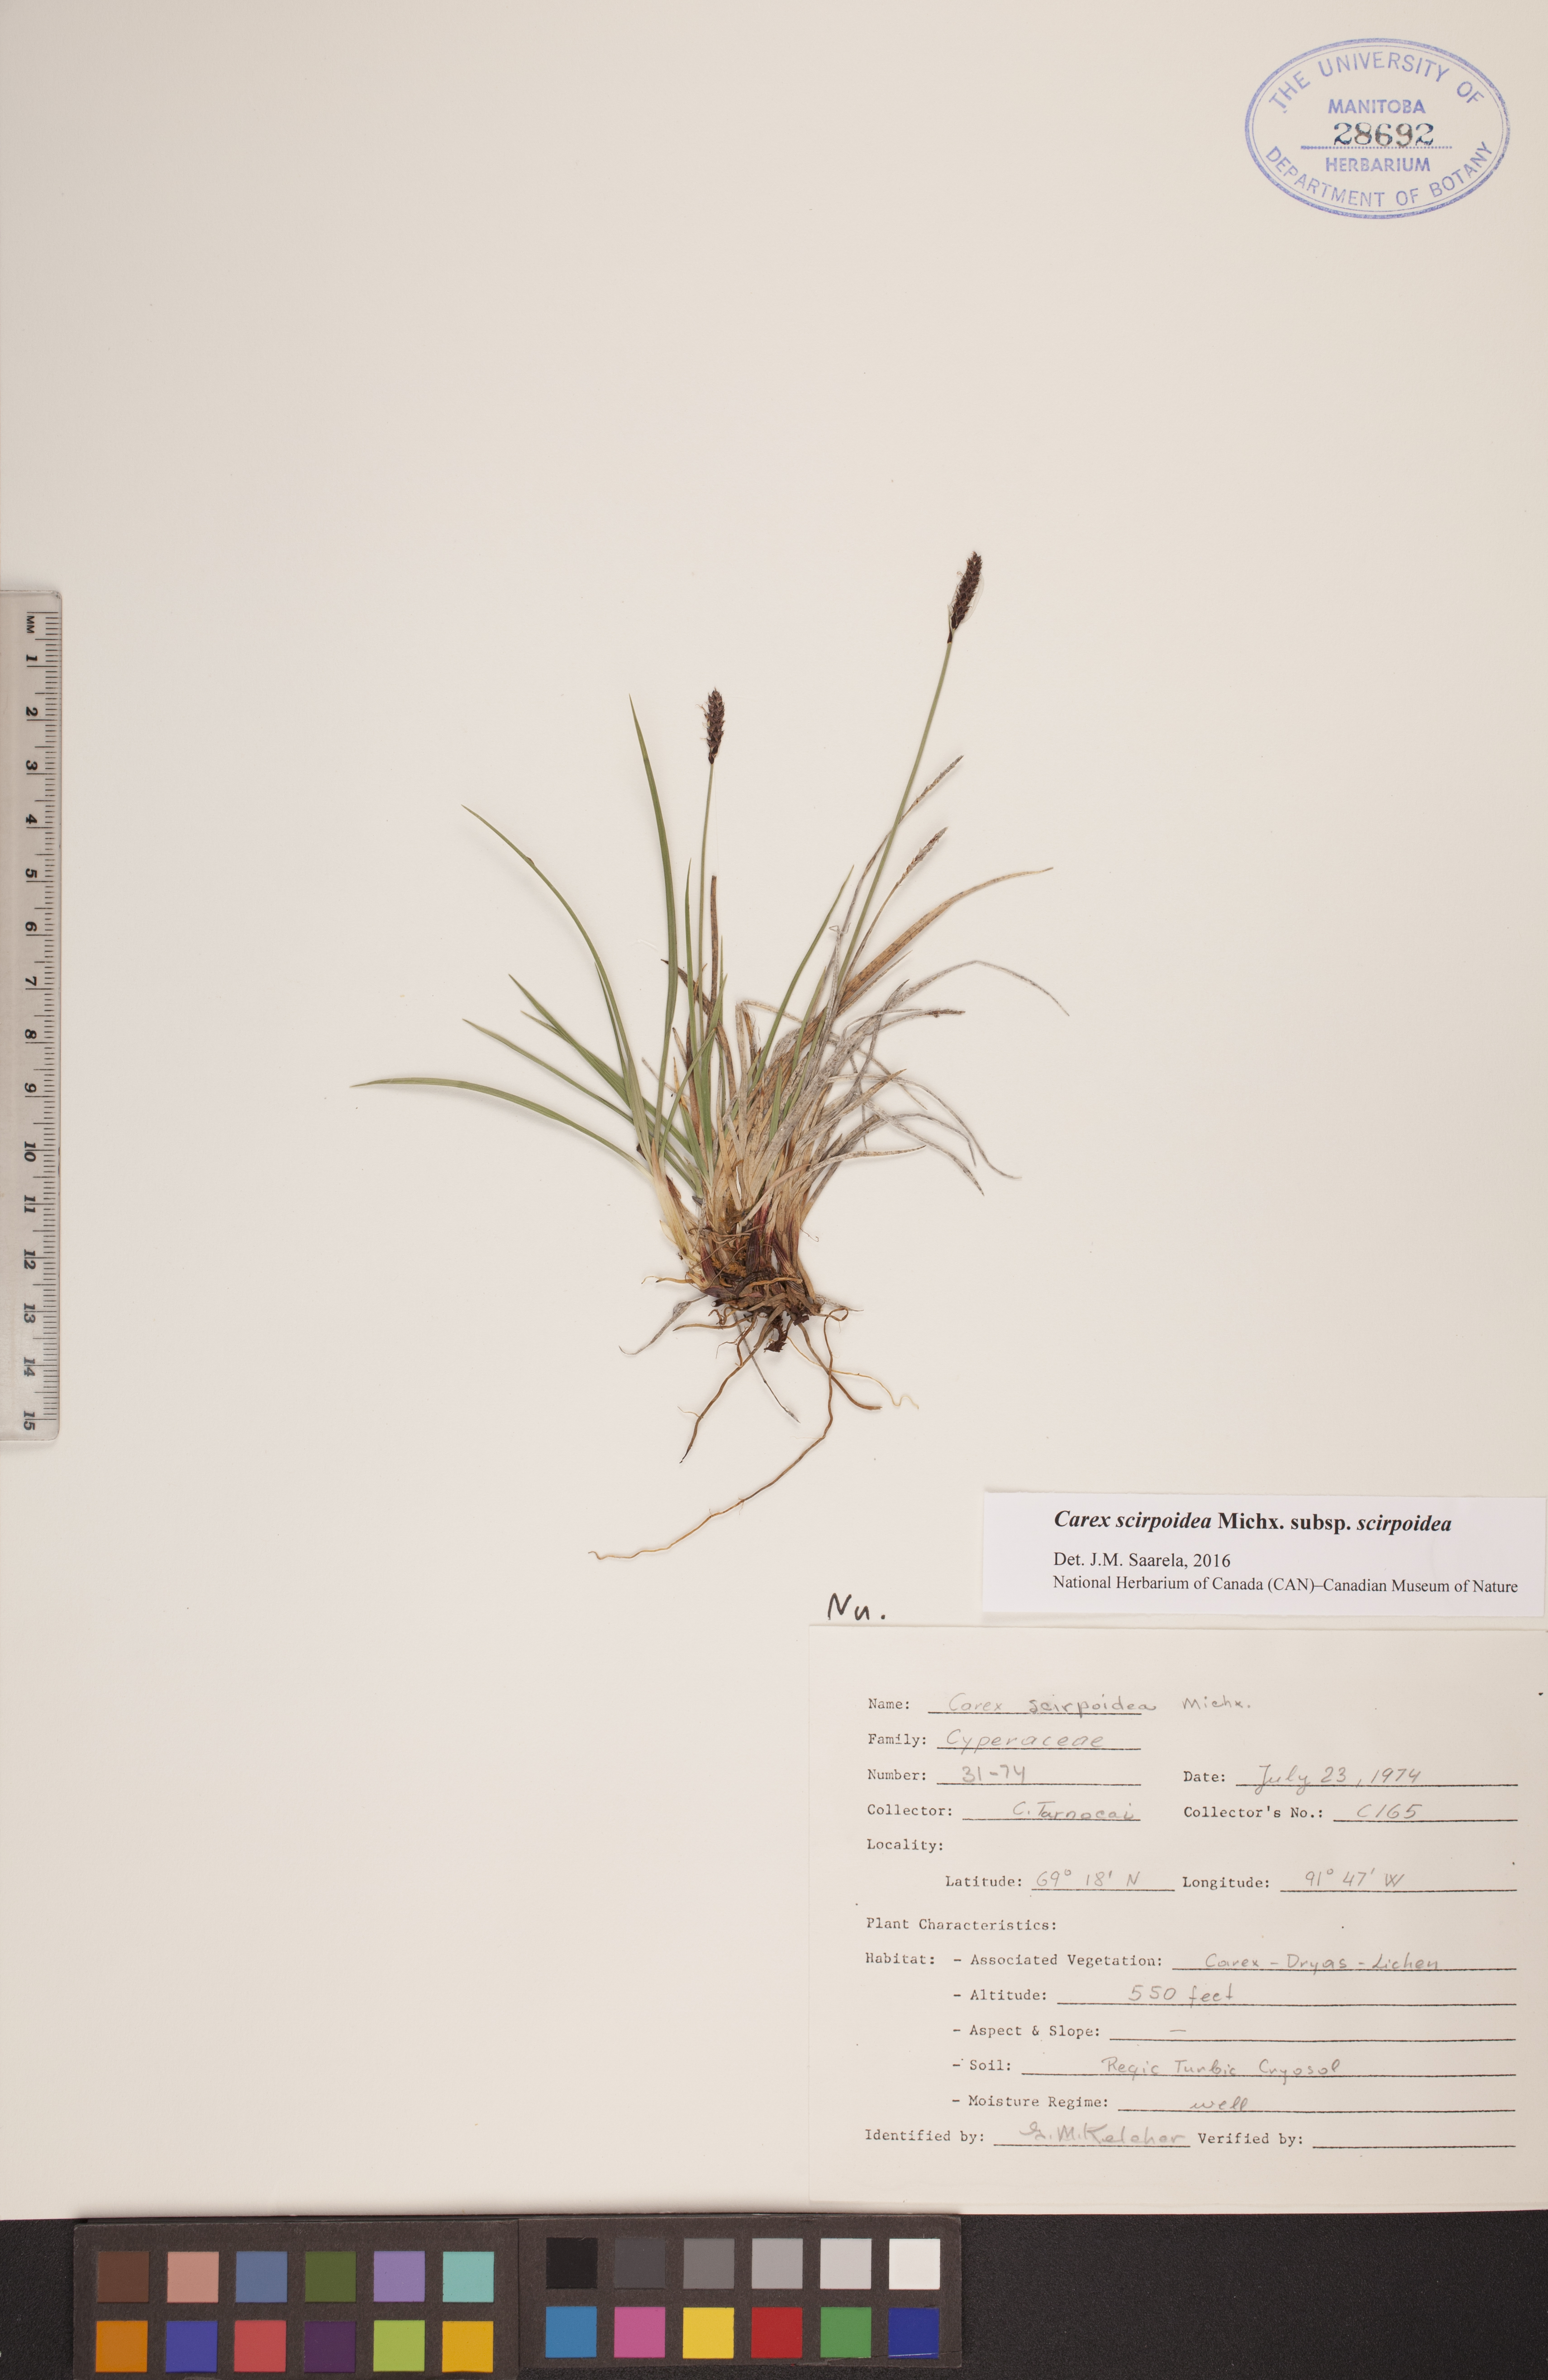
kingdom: Plantae
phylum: Tracheophyta
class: Liliopsida
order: Poales
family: Cyperaceae
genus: Scirpus
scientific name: Scirpus microcarpus
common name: Panicled bulrush
